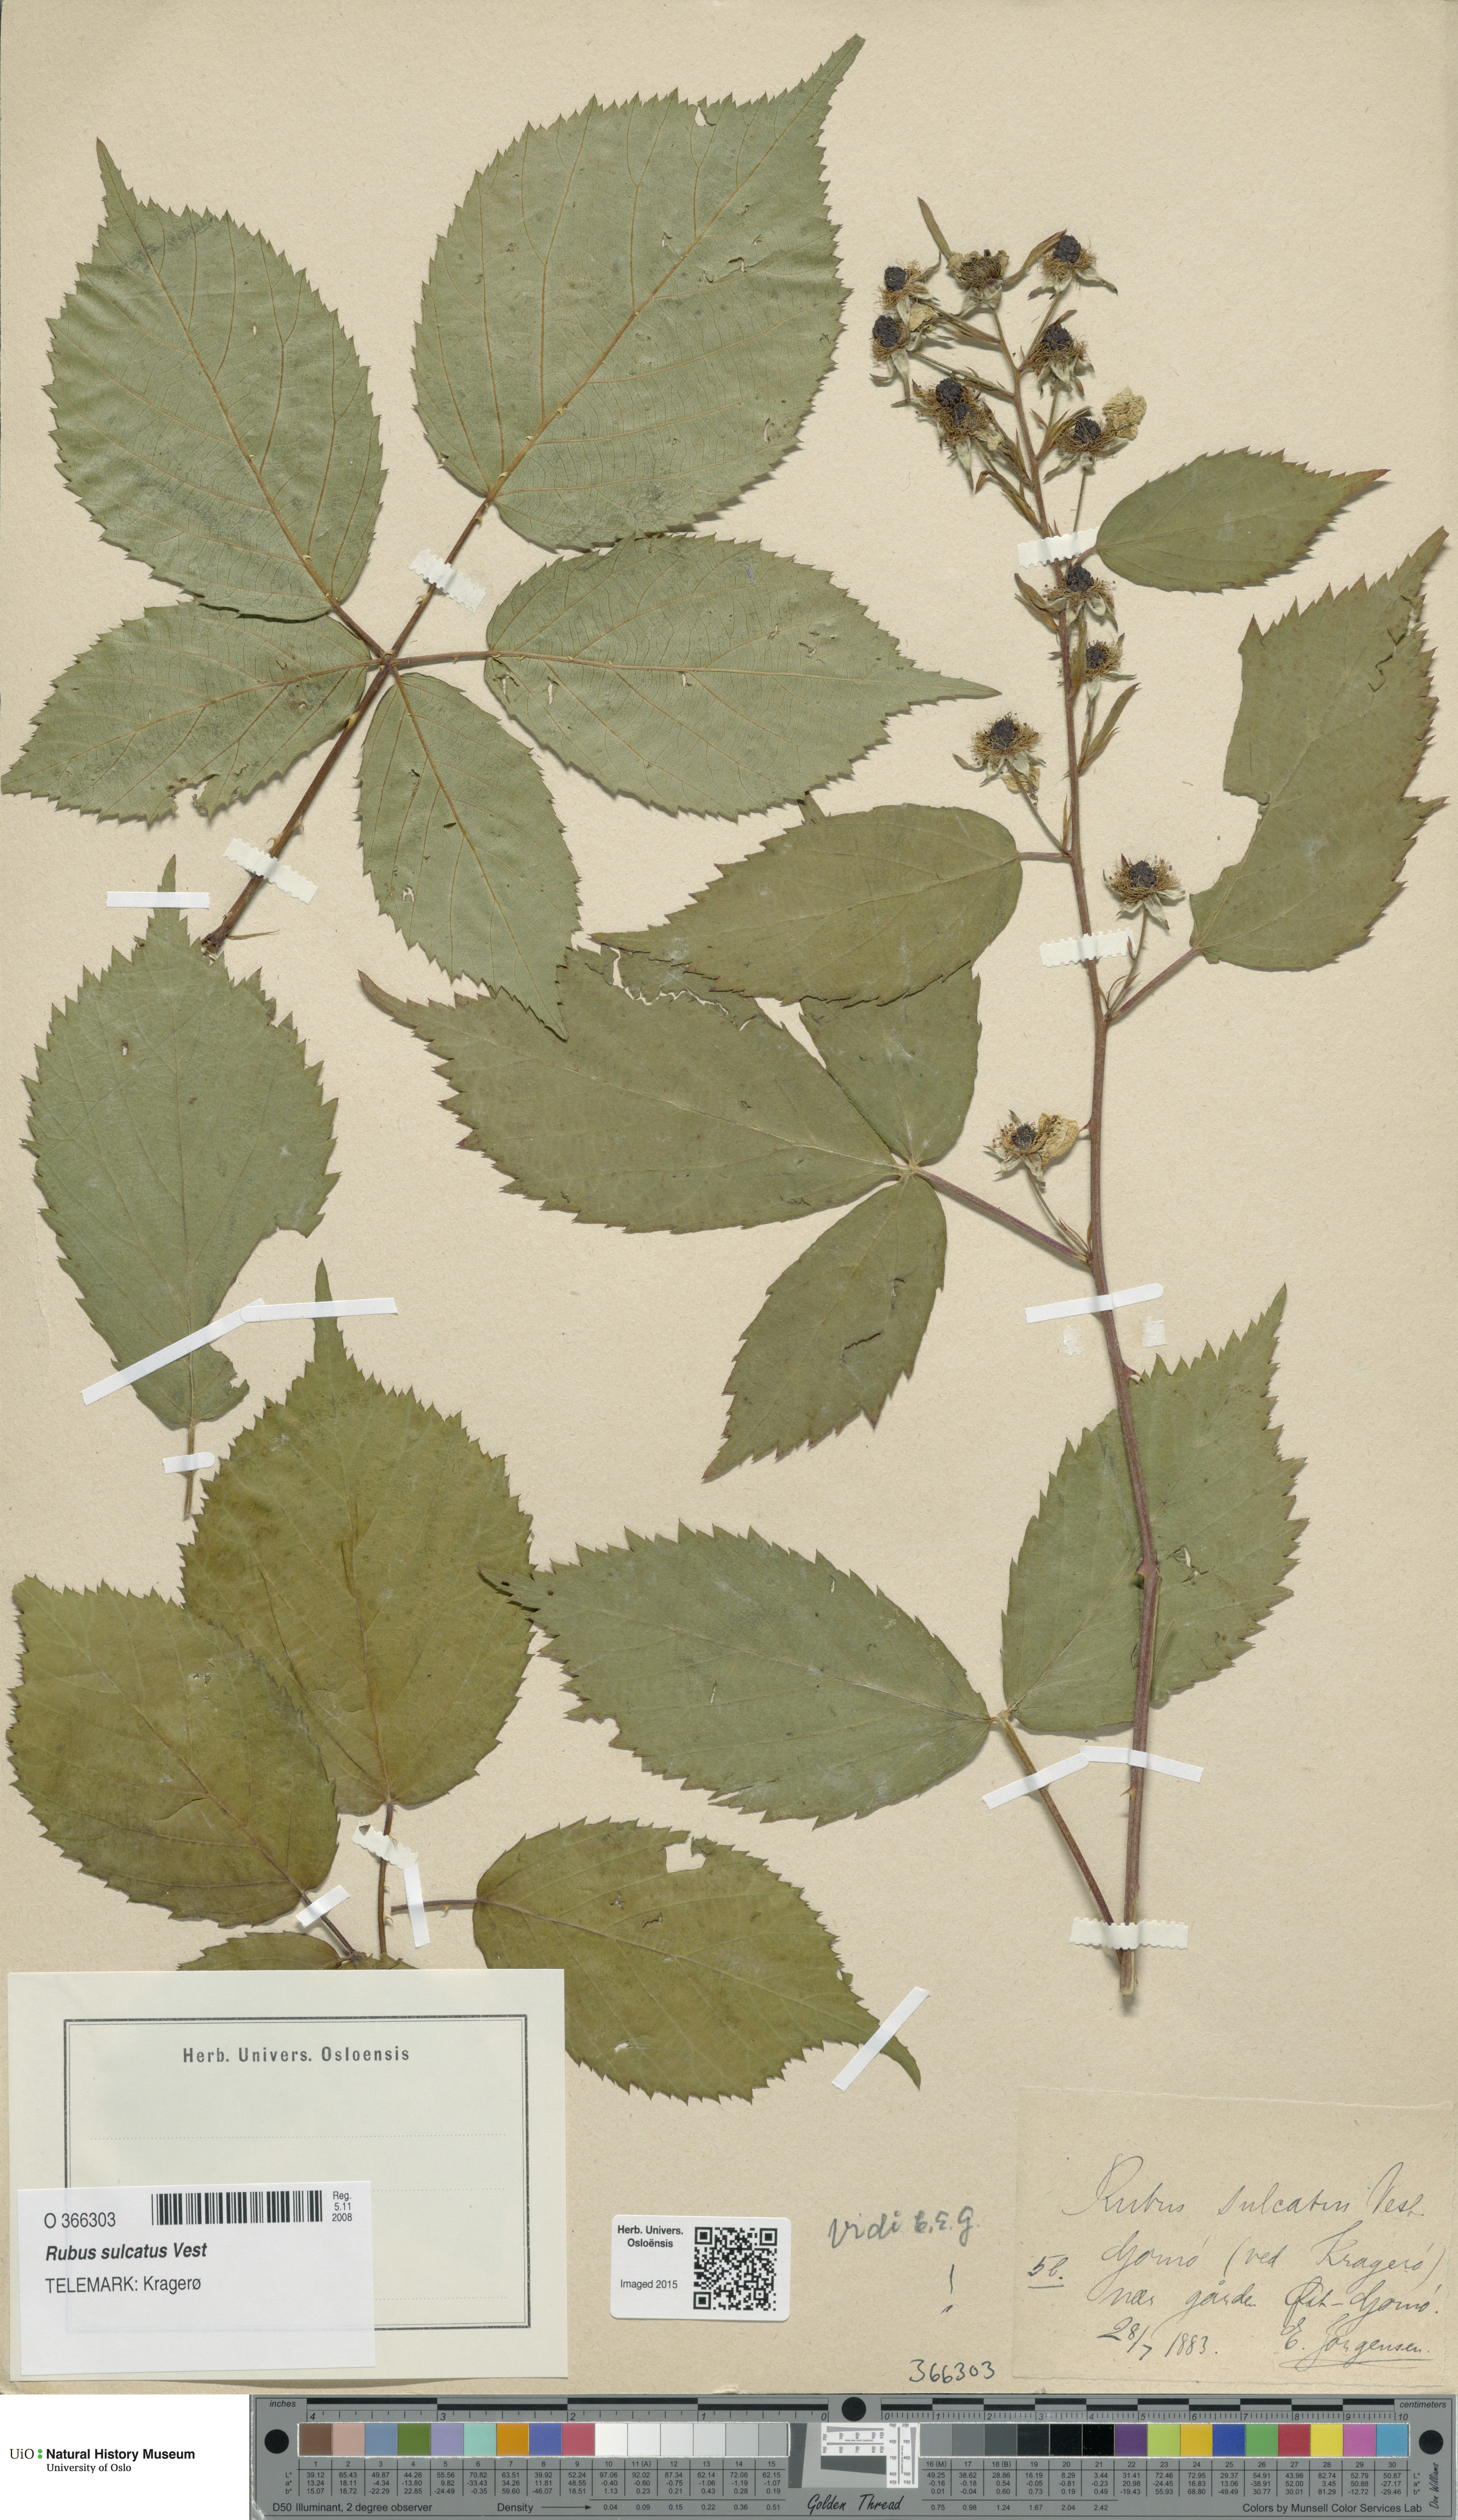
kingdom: Plantae
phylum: Tracheophyta
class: Magnoliopsida
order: Rosales
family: Rosaceae
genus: Rubus
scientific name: Rubus sulcatus
